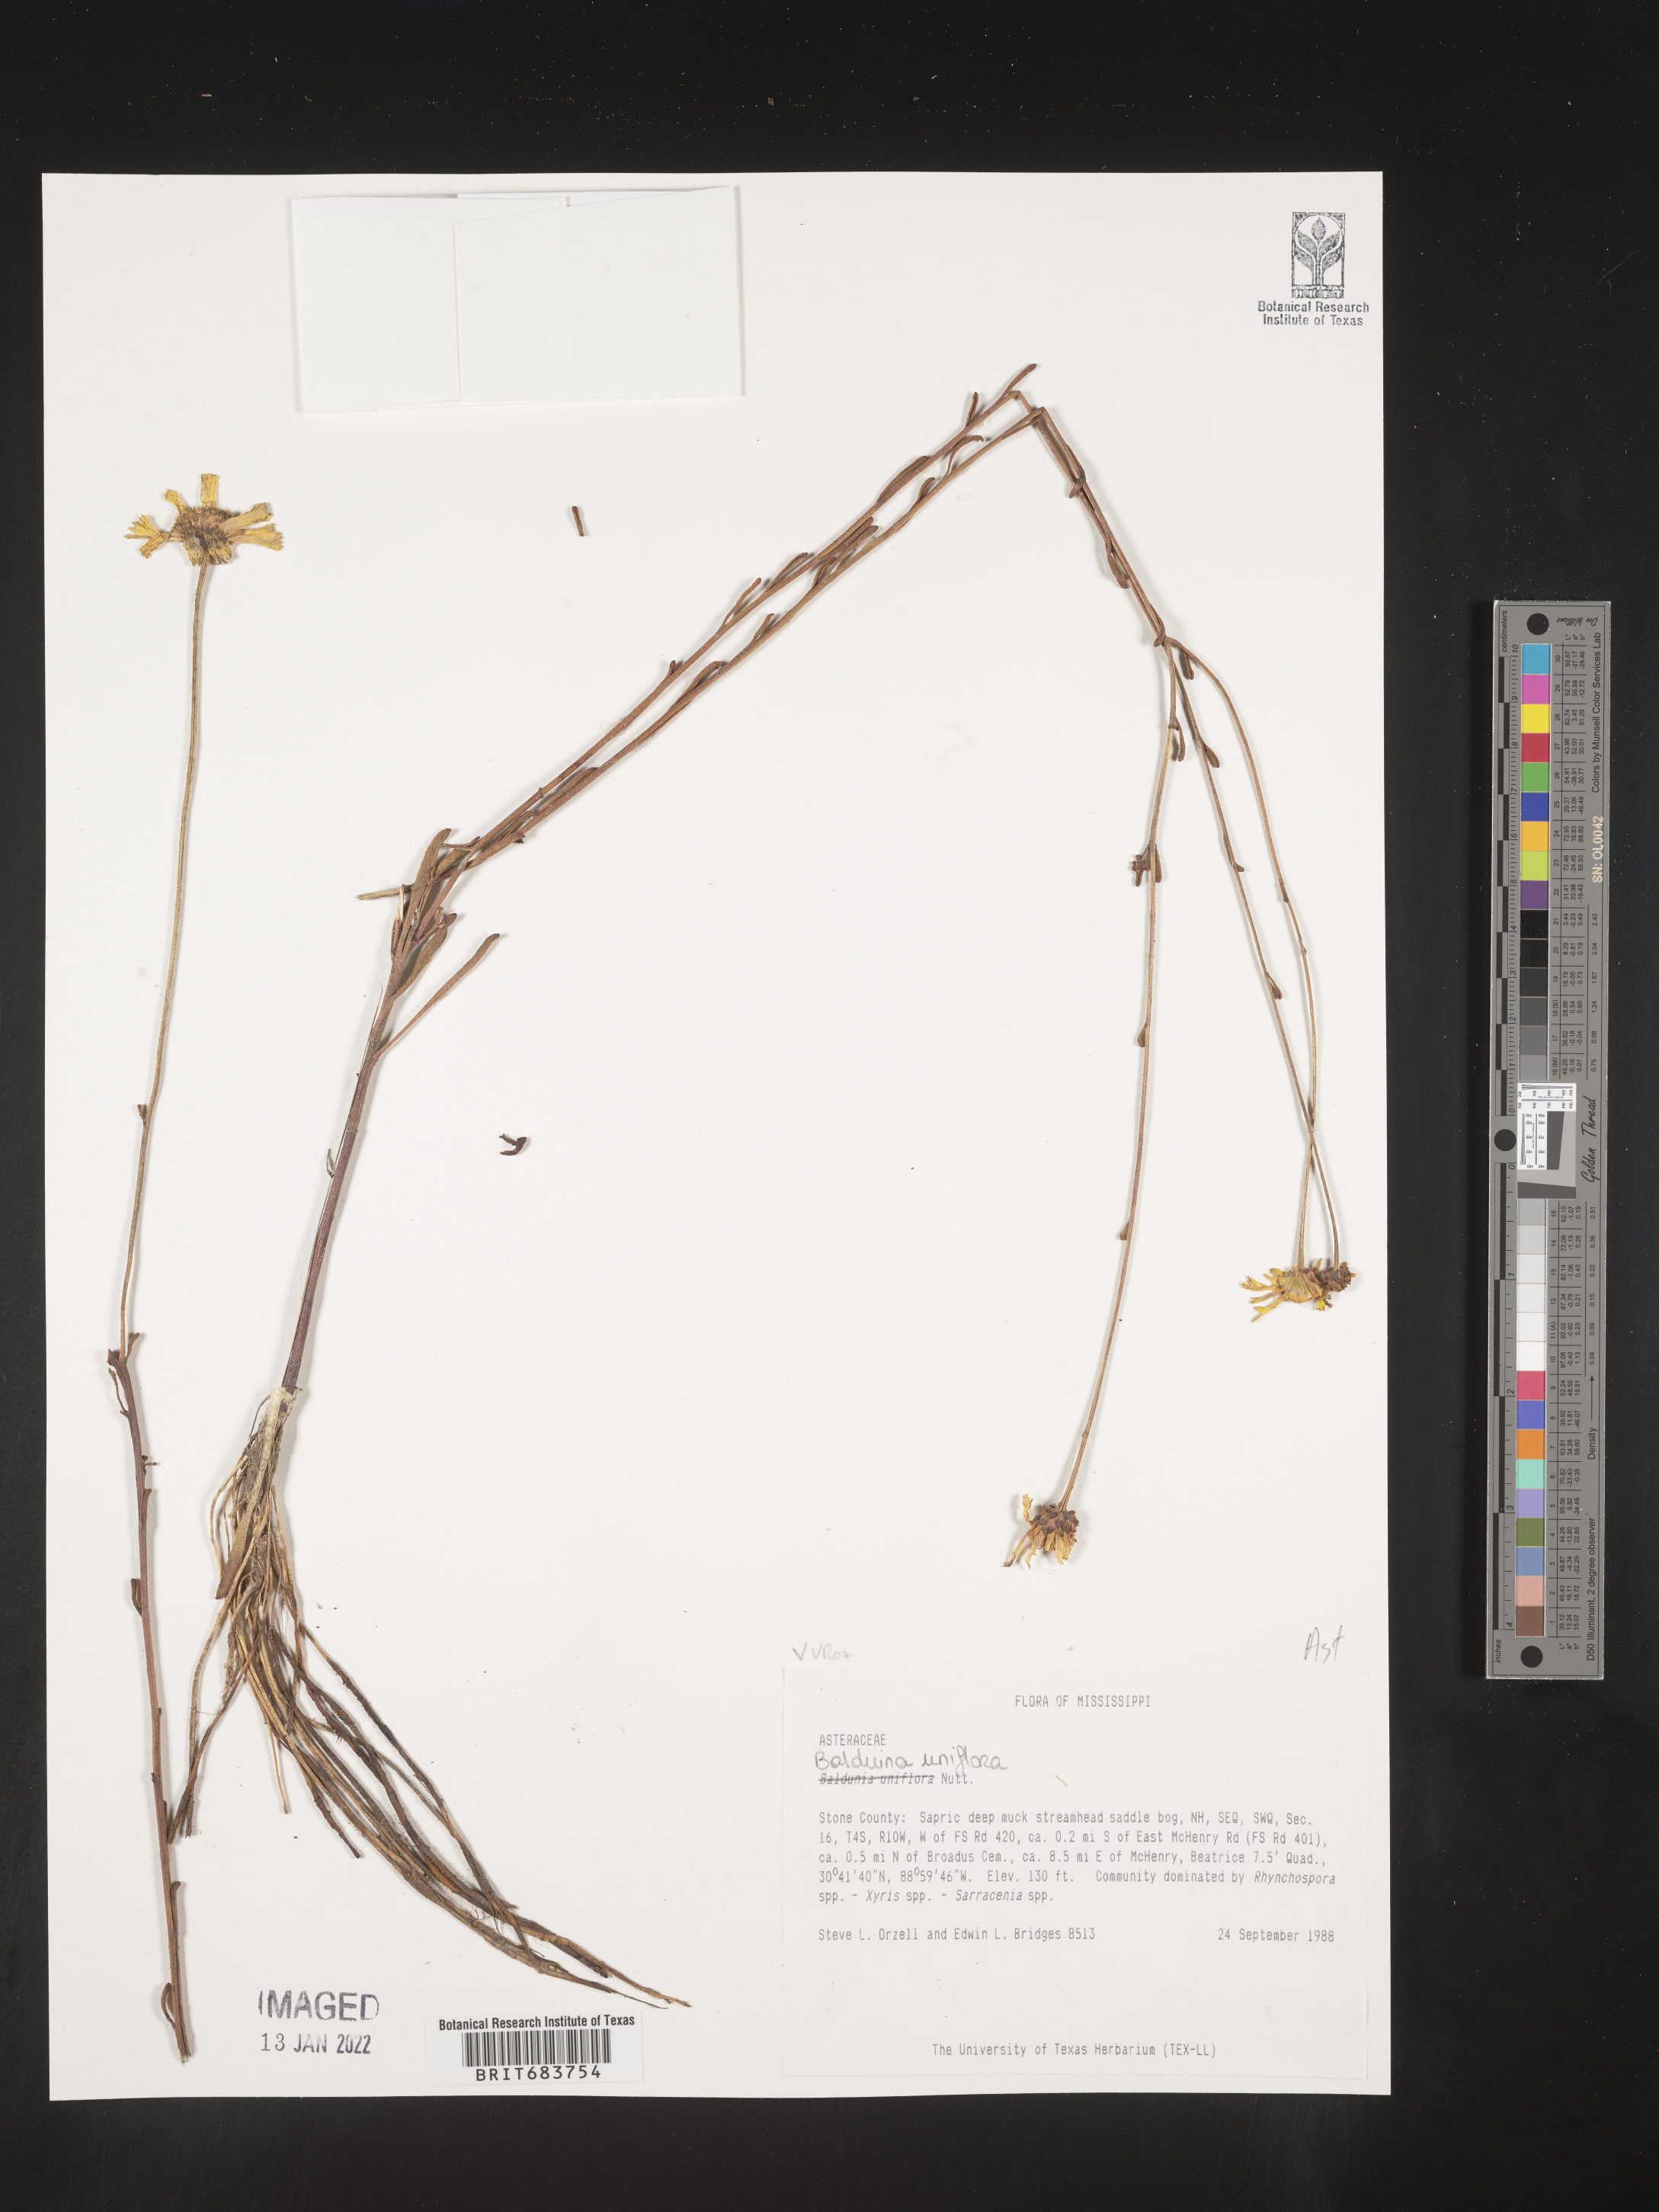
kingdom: Plantae
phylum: Tracheophyta
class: Magnoliopsida
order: Asterales
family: Asteraceae
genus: Balduina
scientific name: Balduina uniflora
